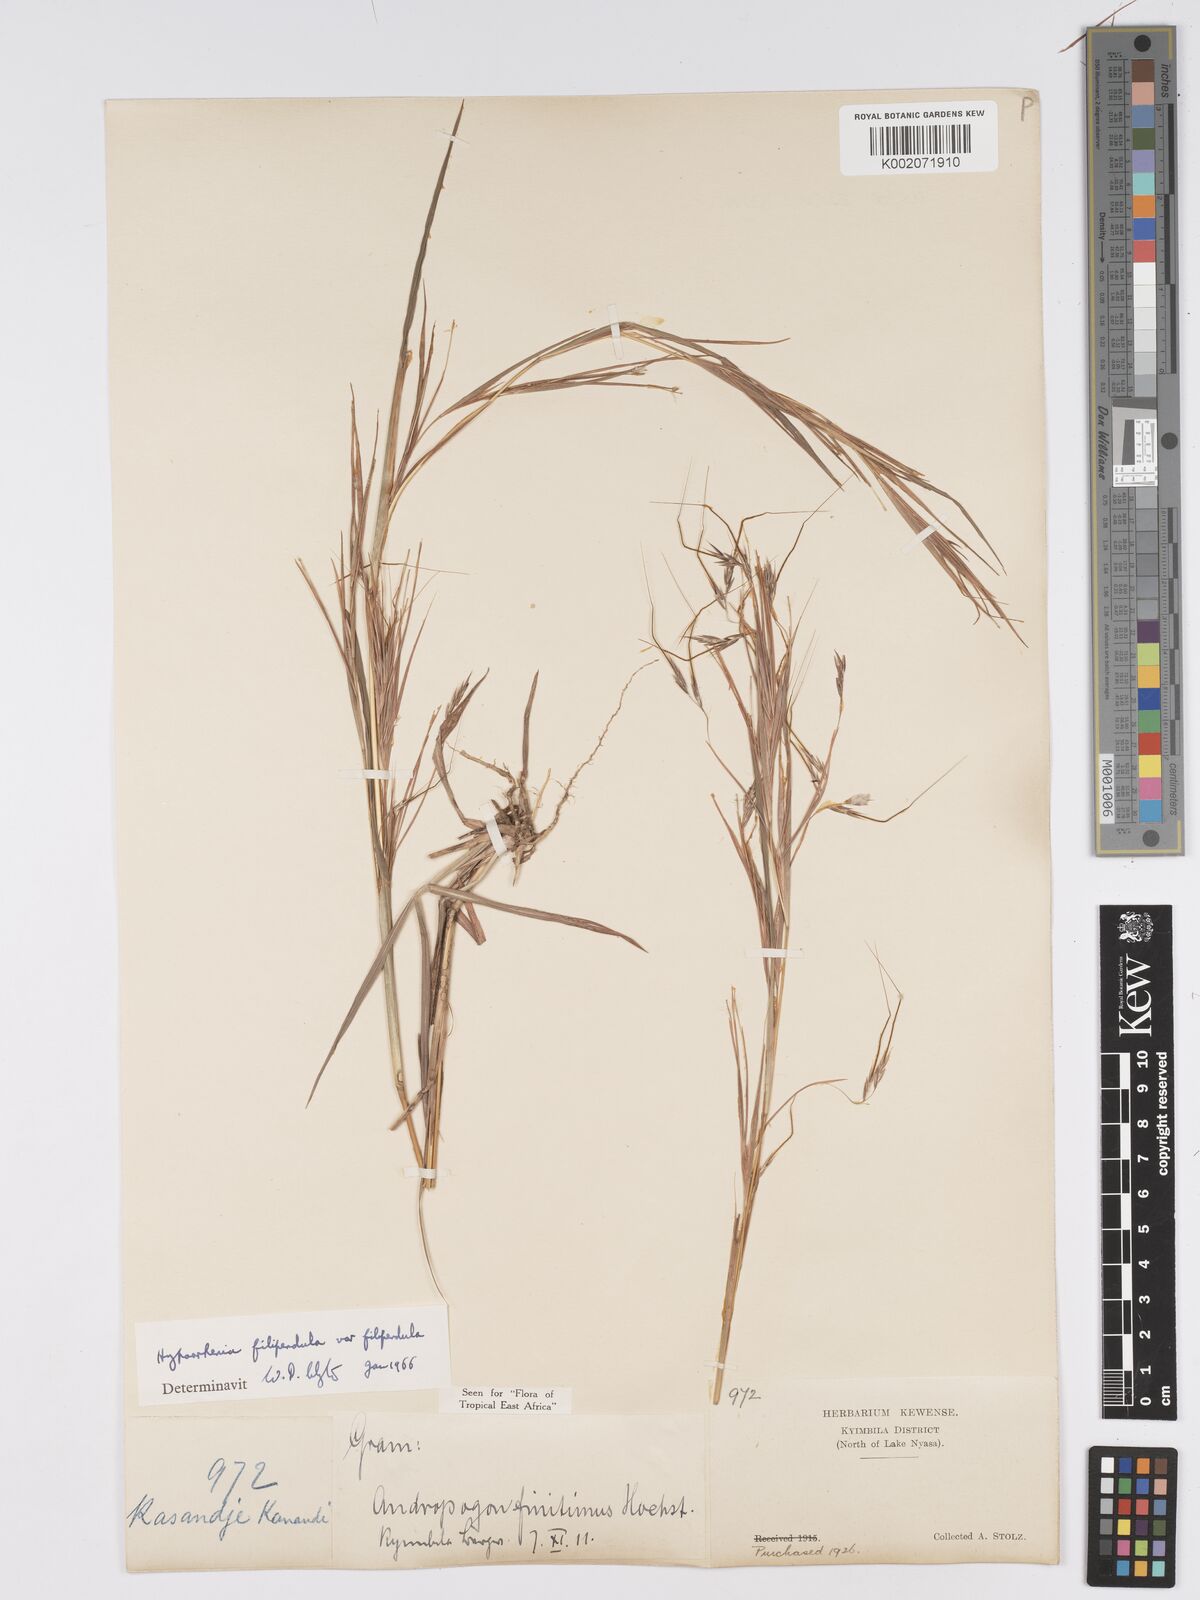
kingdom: Plantae
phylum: Tracheophyta
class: Liliopsida
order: Poales
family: Poaceae
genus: Hyparrhenia
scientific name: Hyparrhenia filipendula
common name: Tambookie grass
